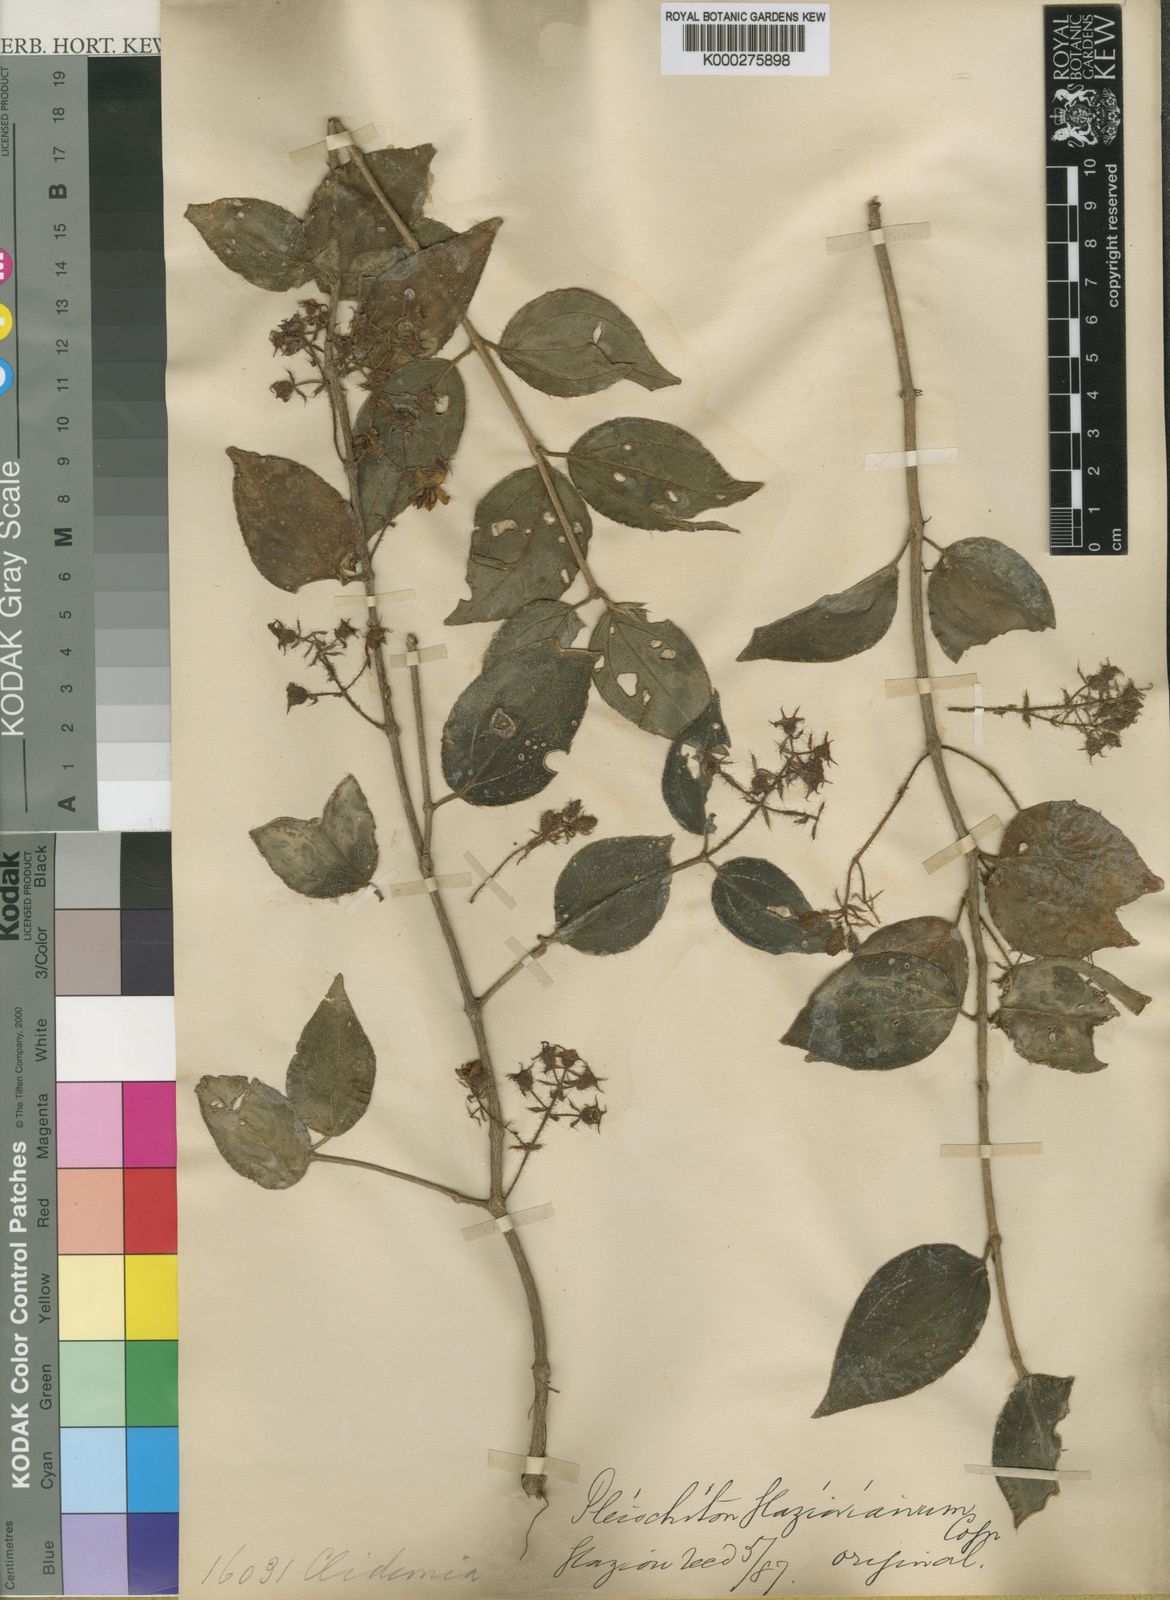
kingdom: Plantae
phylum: Tracheophyta
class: Magnoliopsida
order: Myrtales
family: Melastomataceae
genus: Miconia
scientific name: Miconia blepharodes
